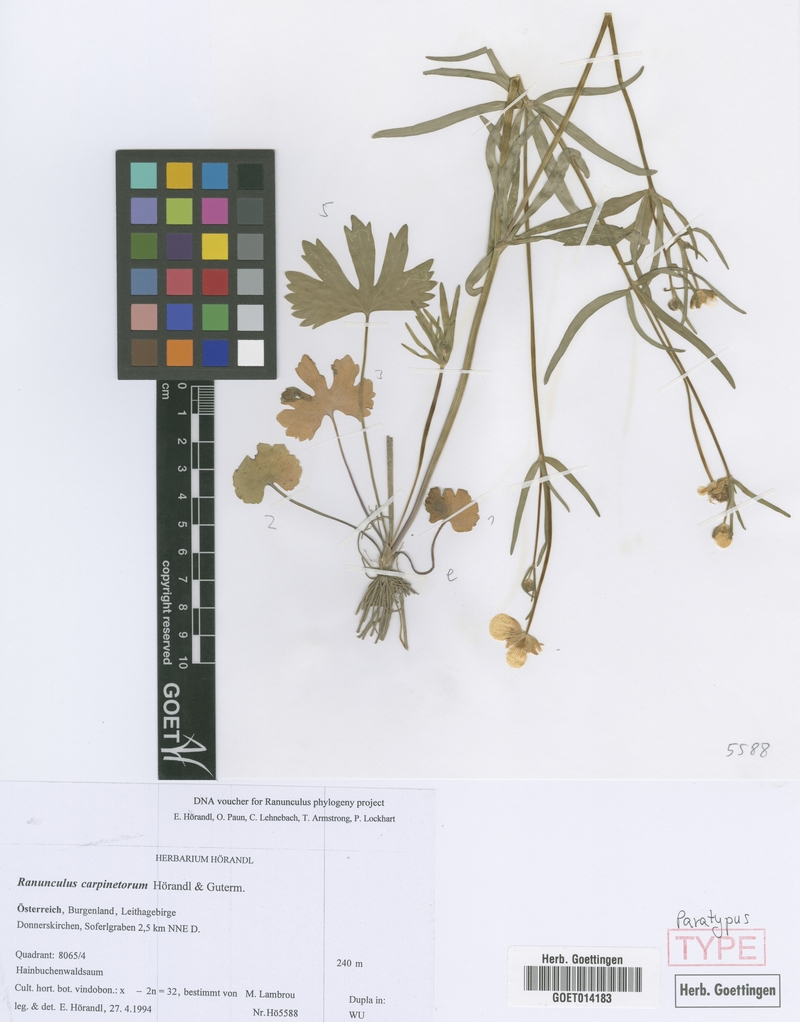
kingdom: Plantae
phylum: Tracheophyta
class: Magnoliopsida
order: Ranunculales
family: Ranunculaceae
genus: Ranunculus
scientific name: Ranunculus carpinetorum
